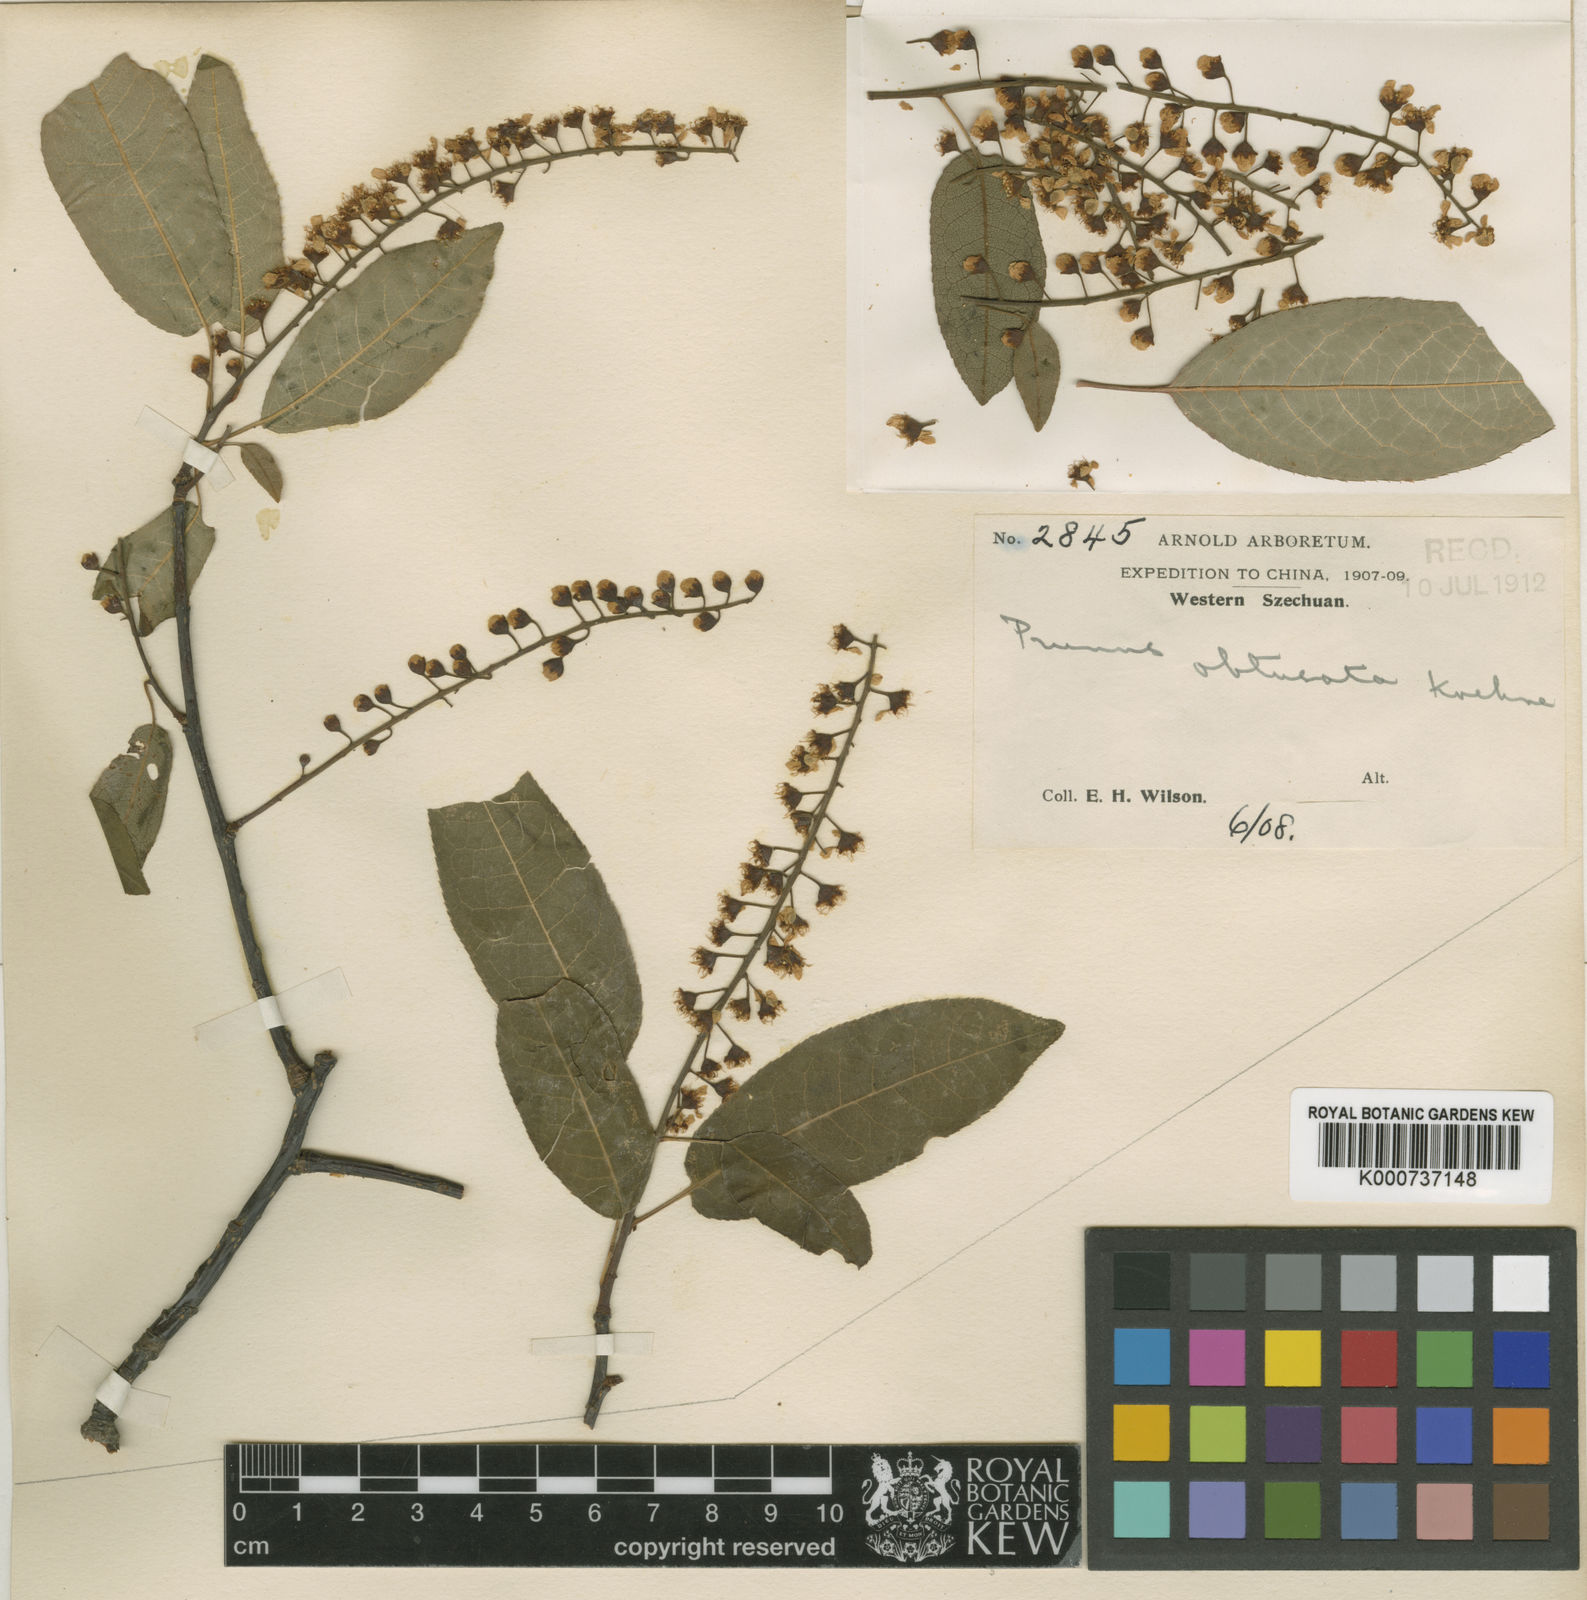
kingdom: Plantae
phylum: Tracheophyta
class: Magnoliopsida
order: Rosales
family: Rosaceae
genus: Prunus
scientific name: Prunus obtusata
